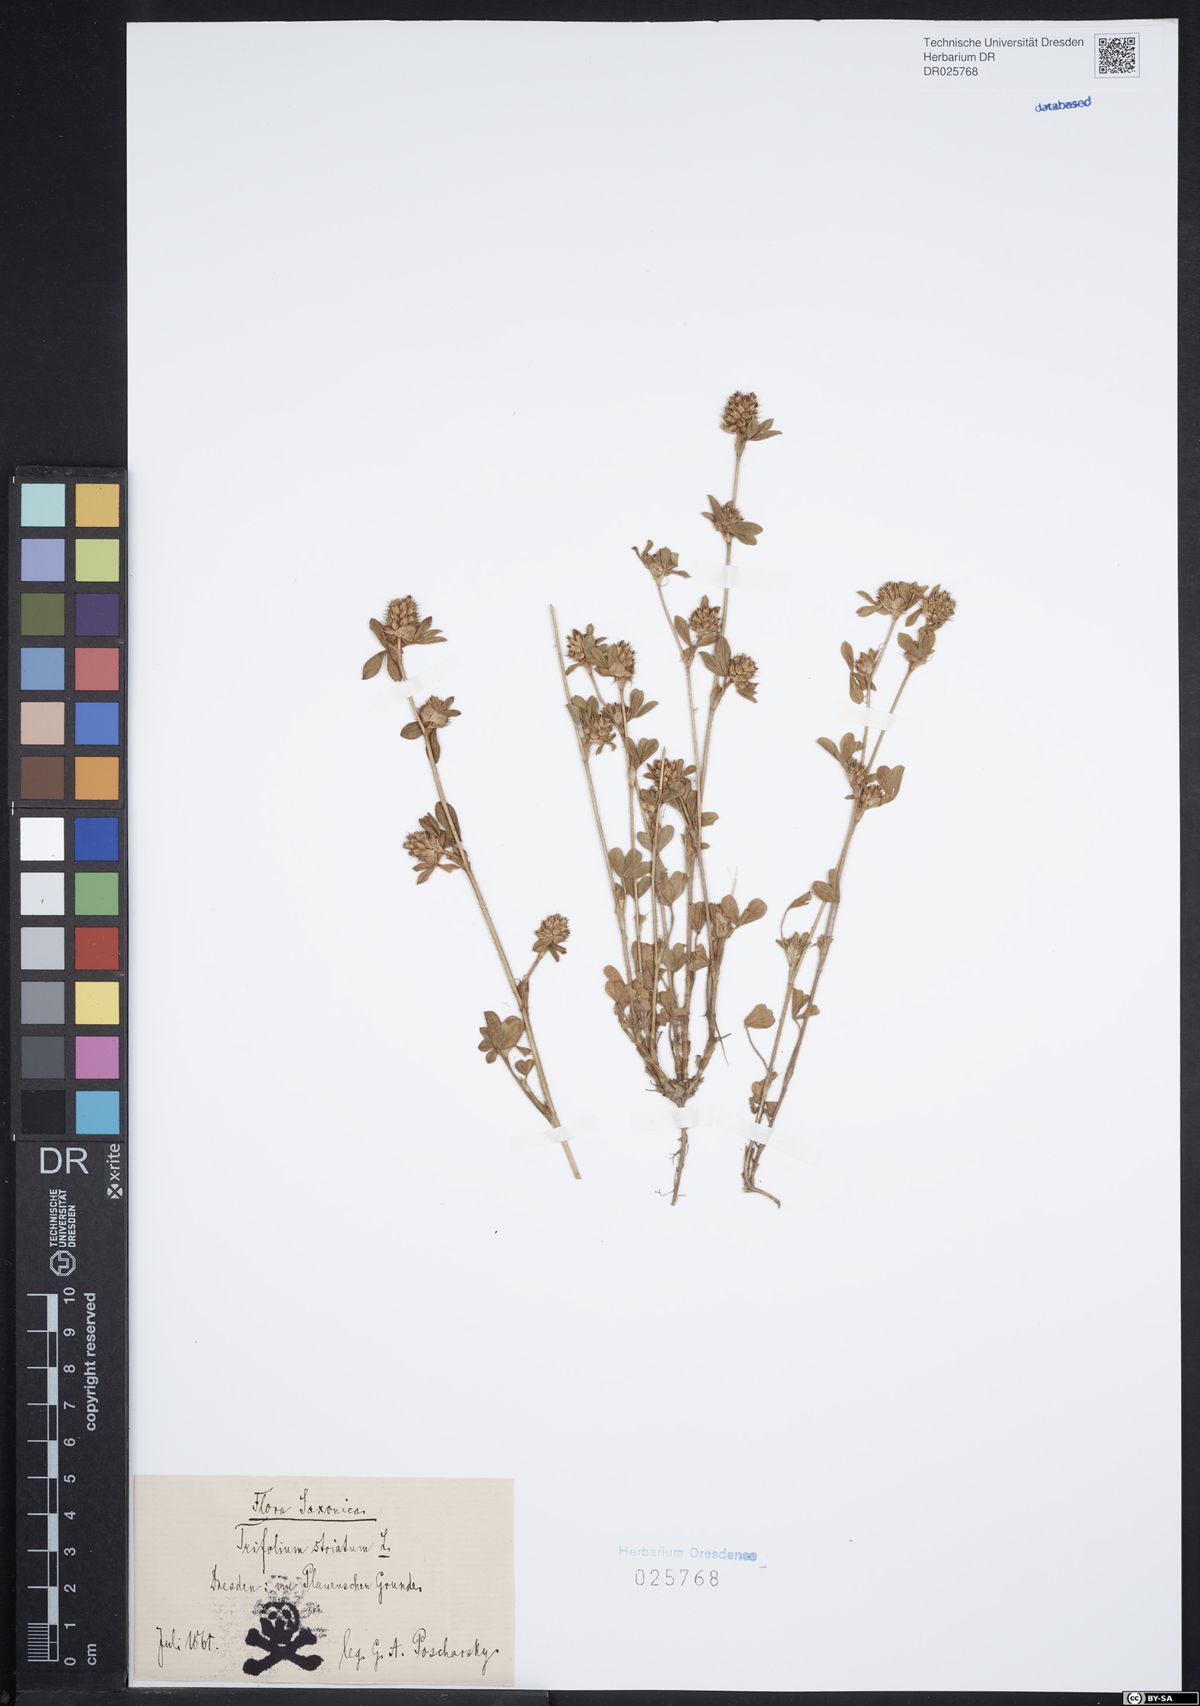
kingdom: Plantae
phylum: Tracheophyta
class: Magnoliopsida
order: Fabales
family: Fabaceae
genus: Trifolium
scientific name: Trifolium striatum
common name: Knotted clover
